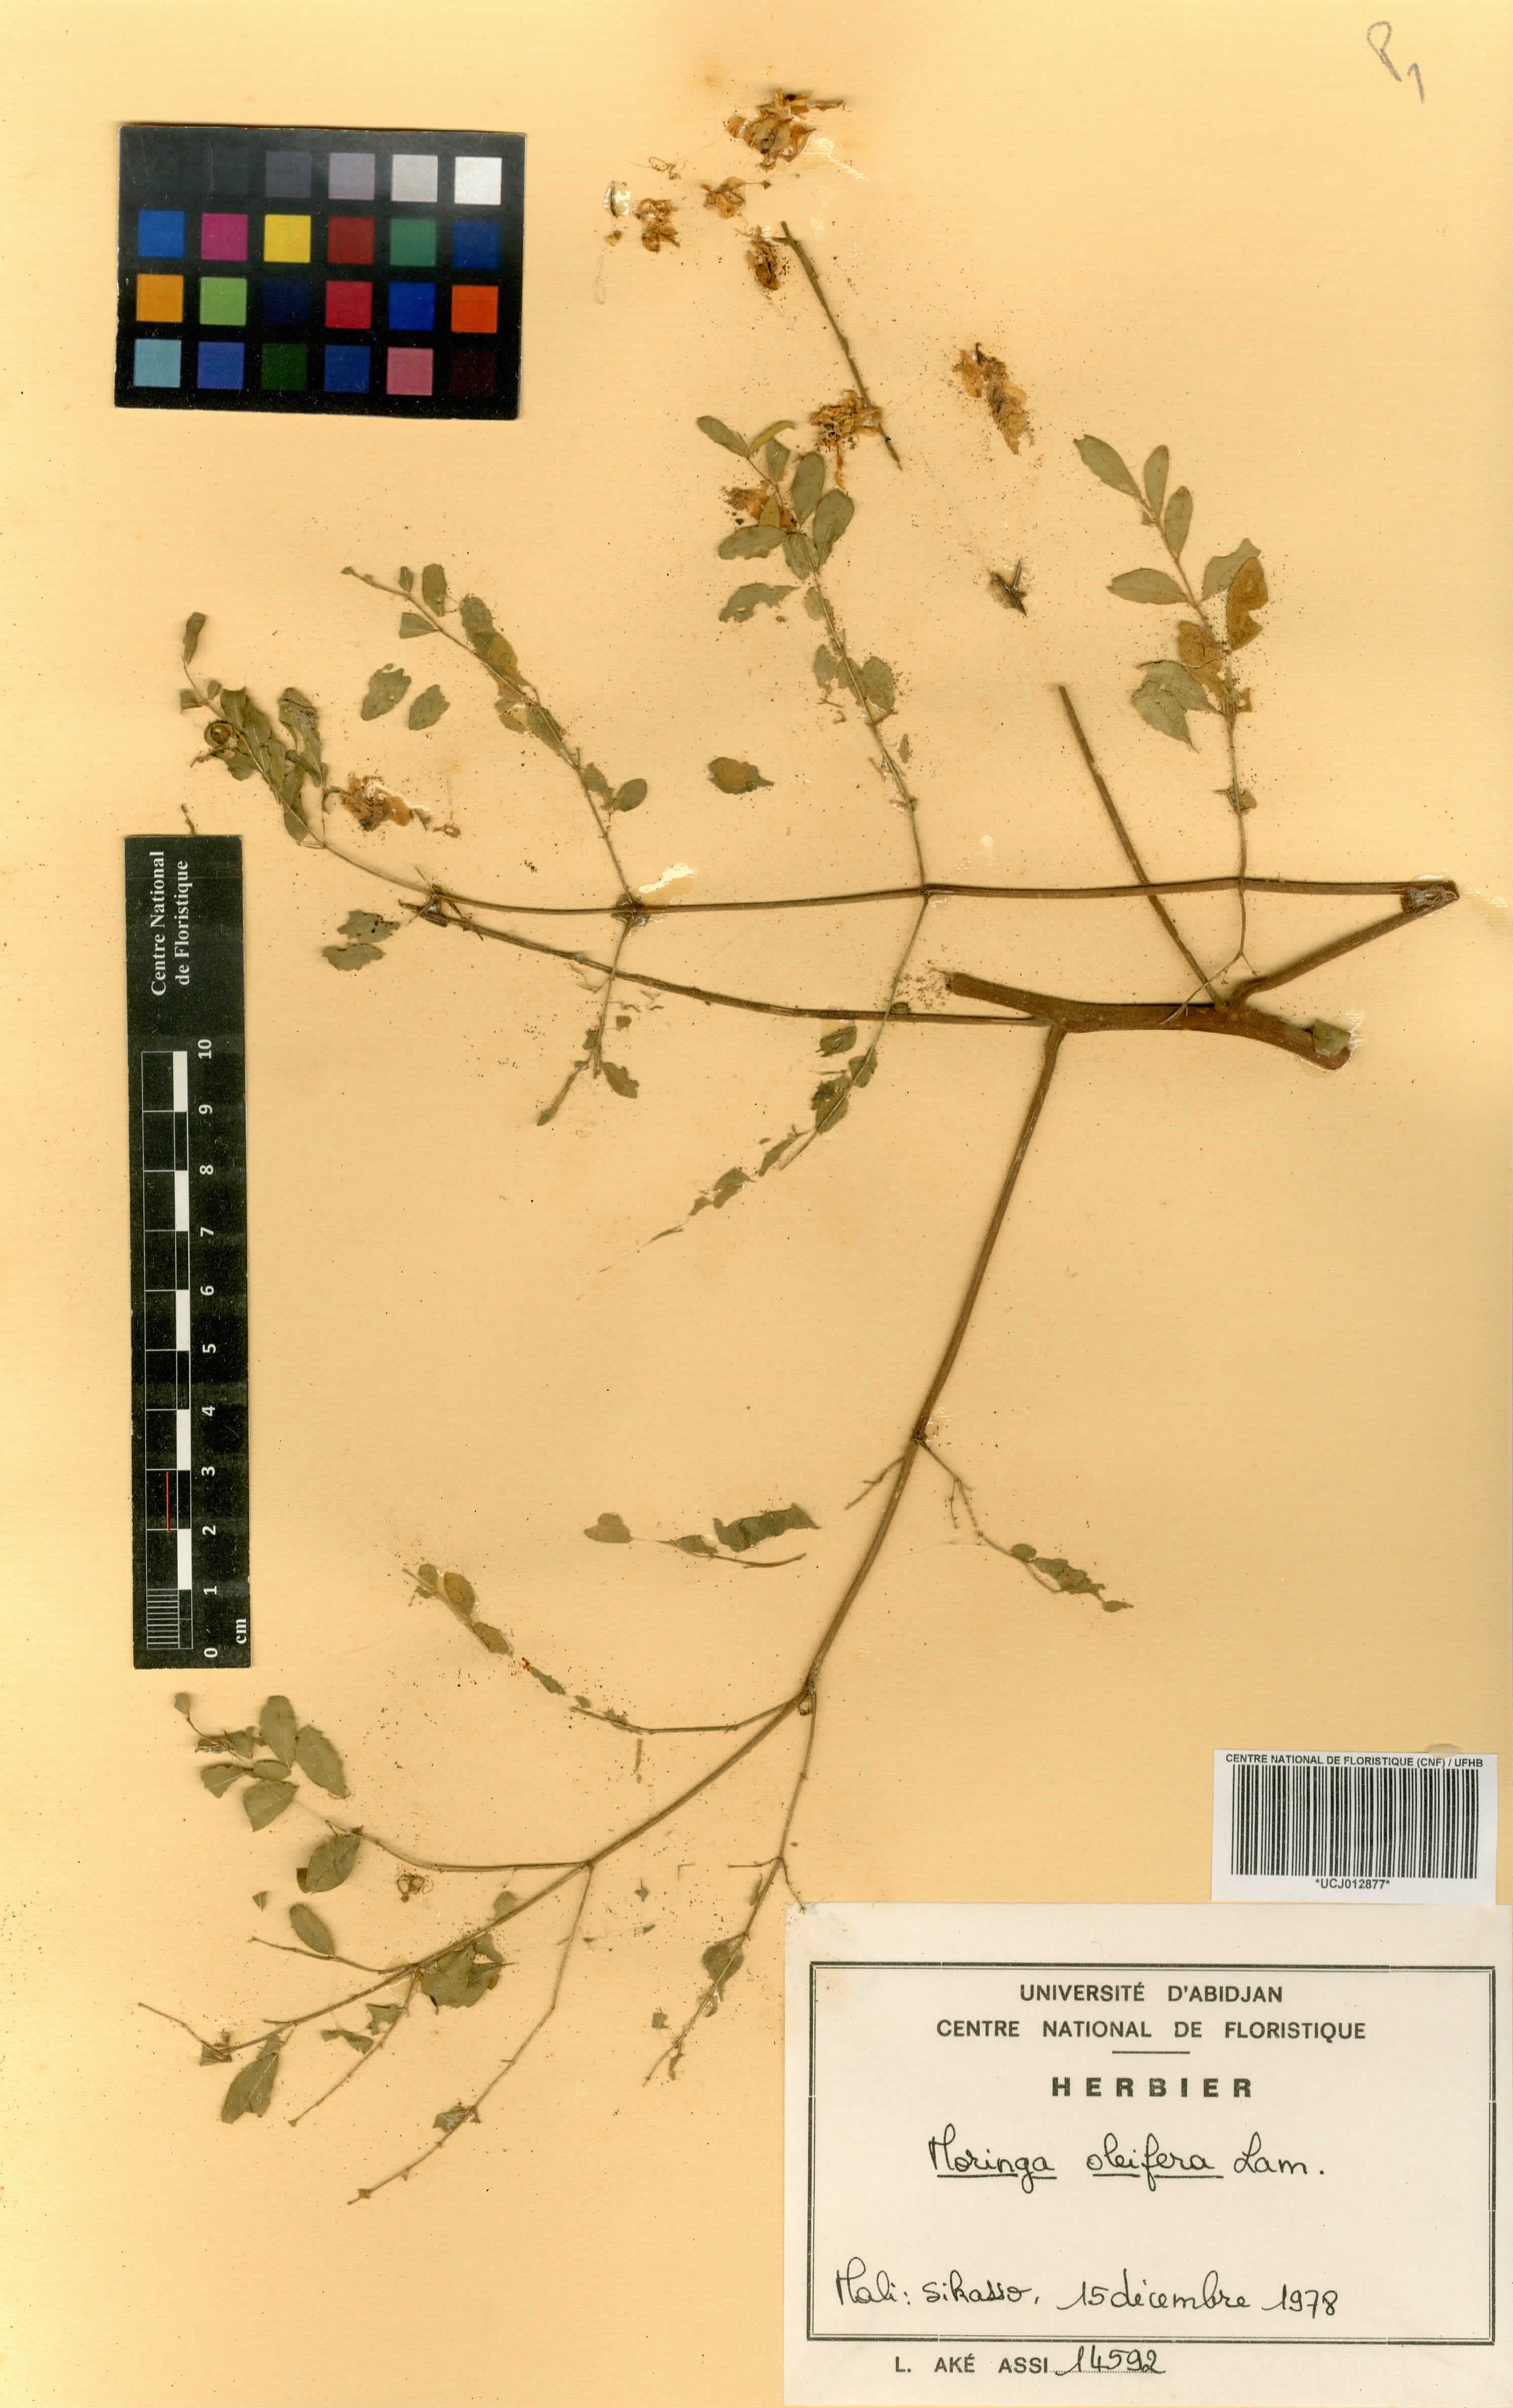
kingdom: Plantae
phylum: Tracheophyta
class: Magnoliopsida
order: Brassicales
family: Moringaceae
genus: Moringa
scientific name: Moringa oleifera
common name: Horseradish-tree
